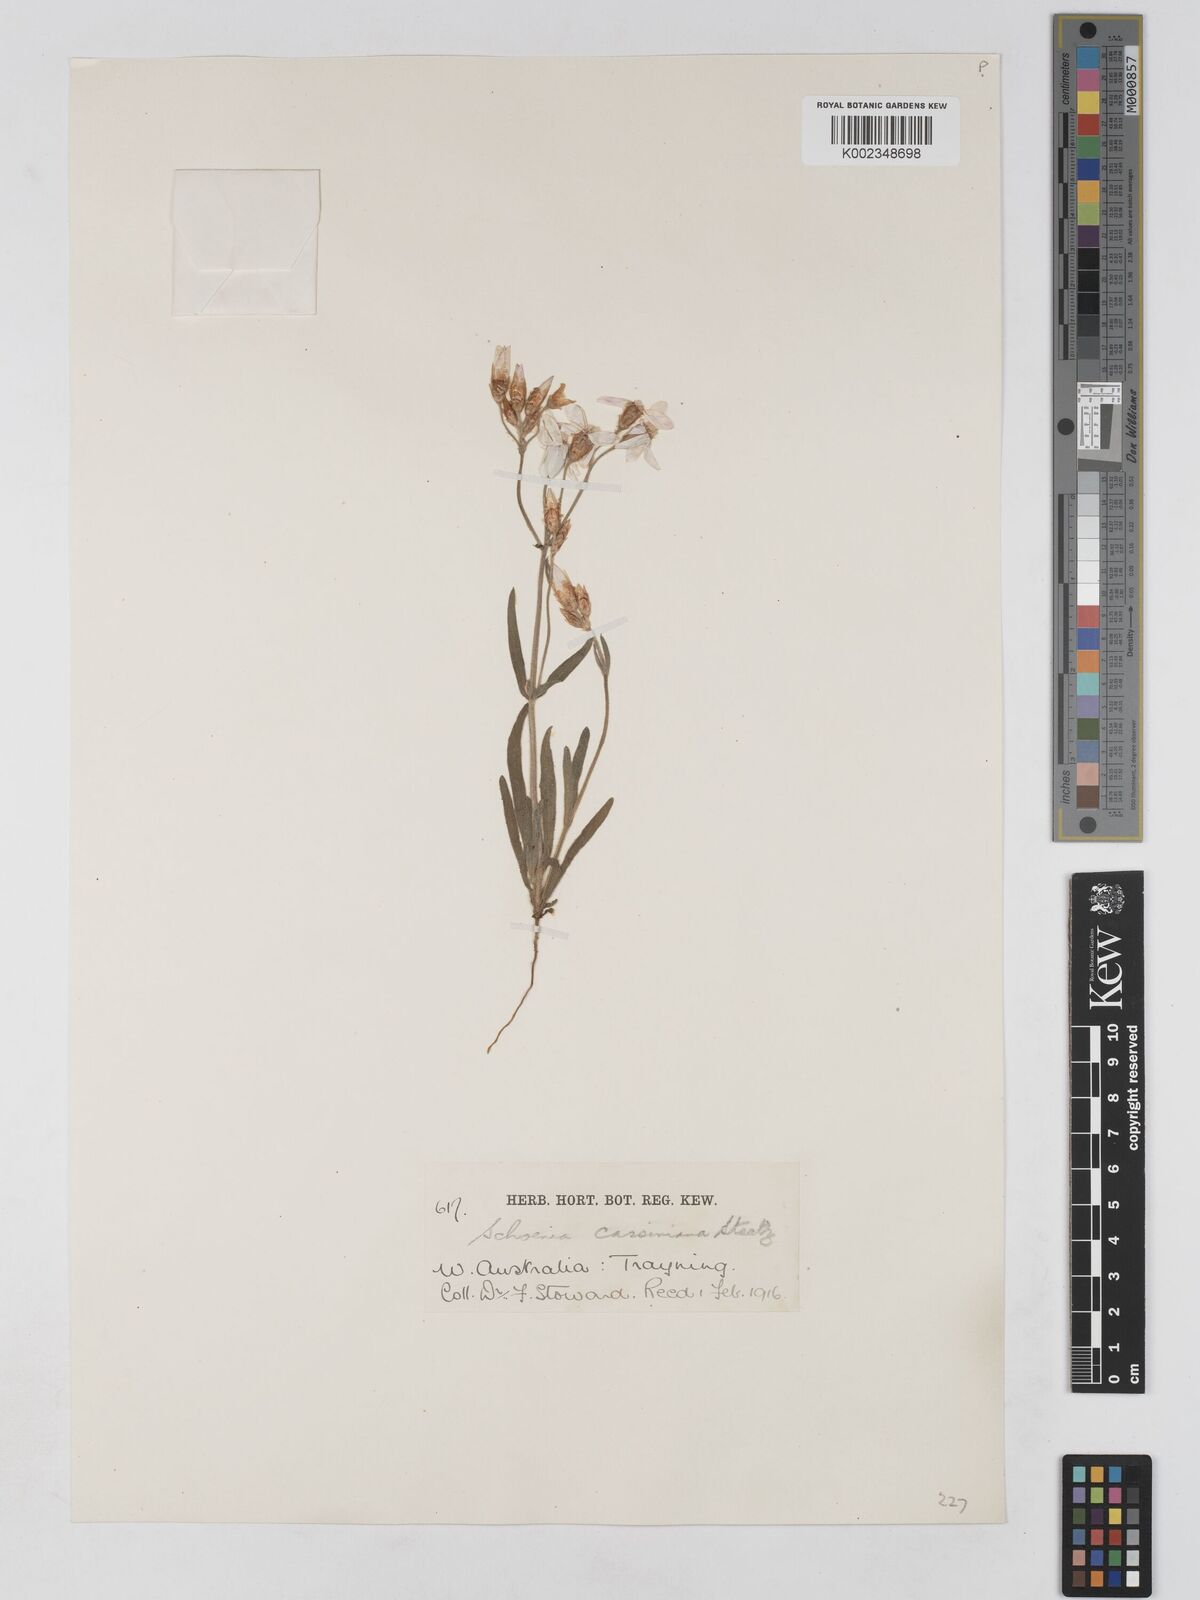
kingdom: Plantae
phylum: Tracheophyta
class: Magnoliopsida
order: Asterales
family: Asteraceae
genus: Schoenia
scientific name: Schoenia cassiniana
